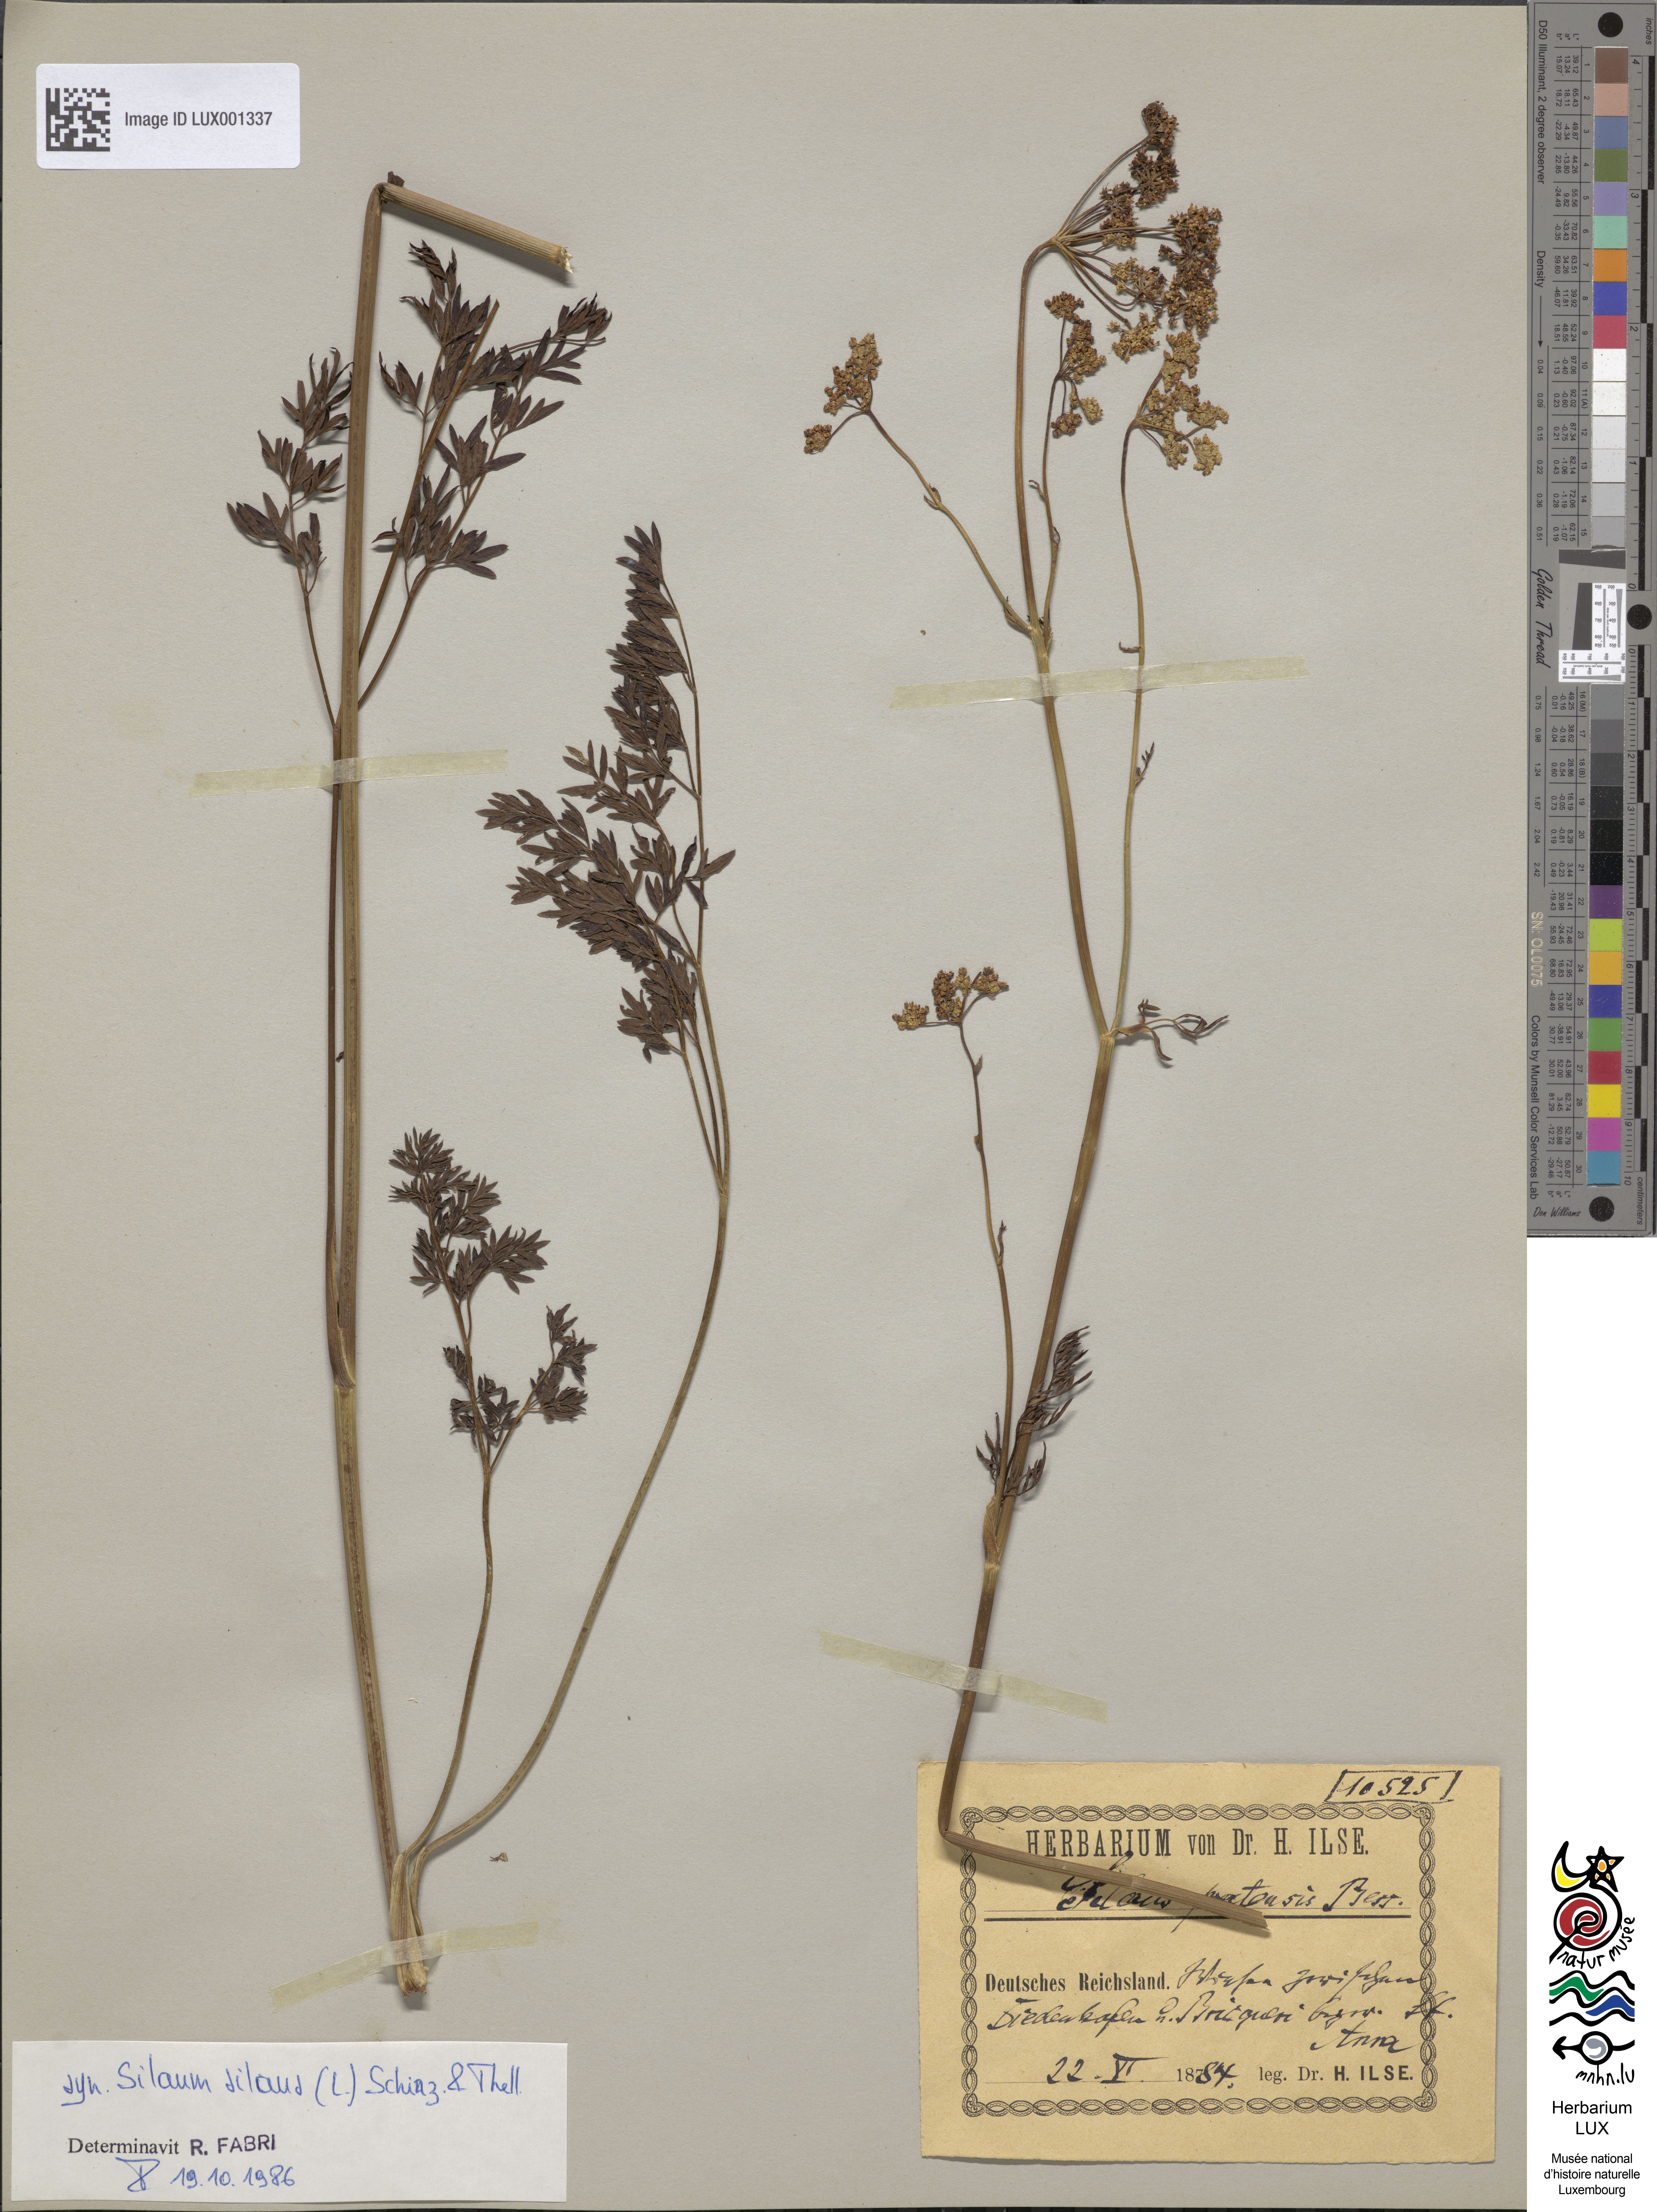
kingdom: Plantae
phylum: Tracheophyta
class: Magnoliopsida
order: Apiales
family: Apiaceae
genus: Silaum
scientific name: Silaum silaus
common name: Pepper-saxifrage
